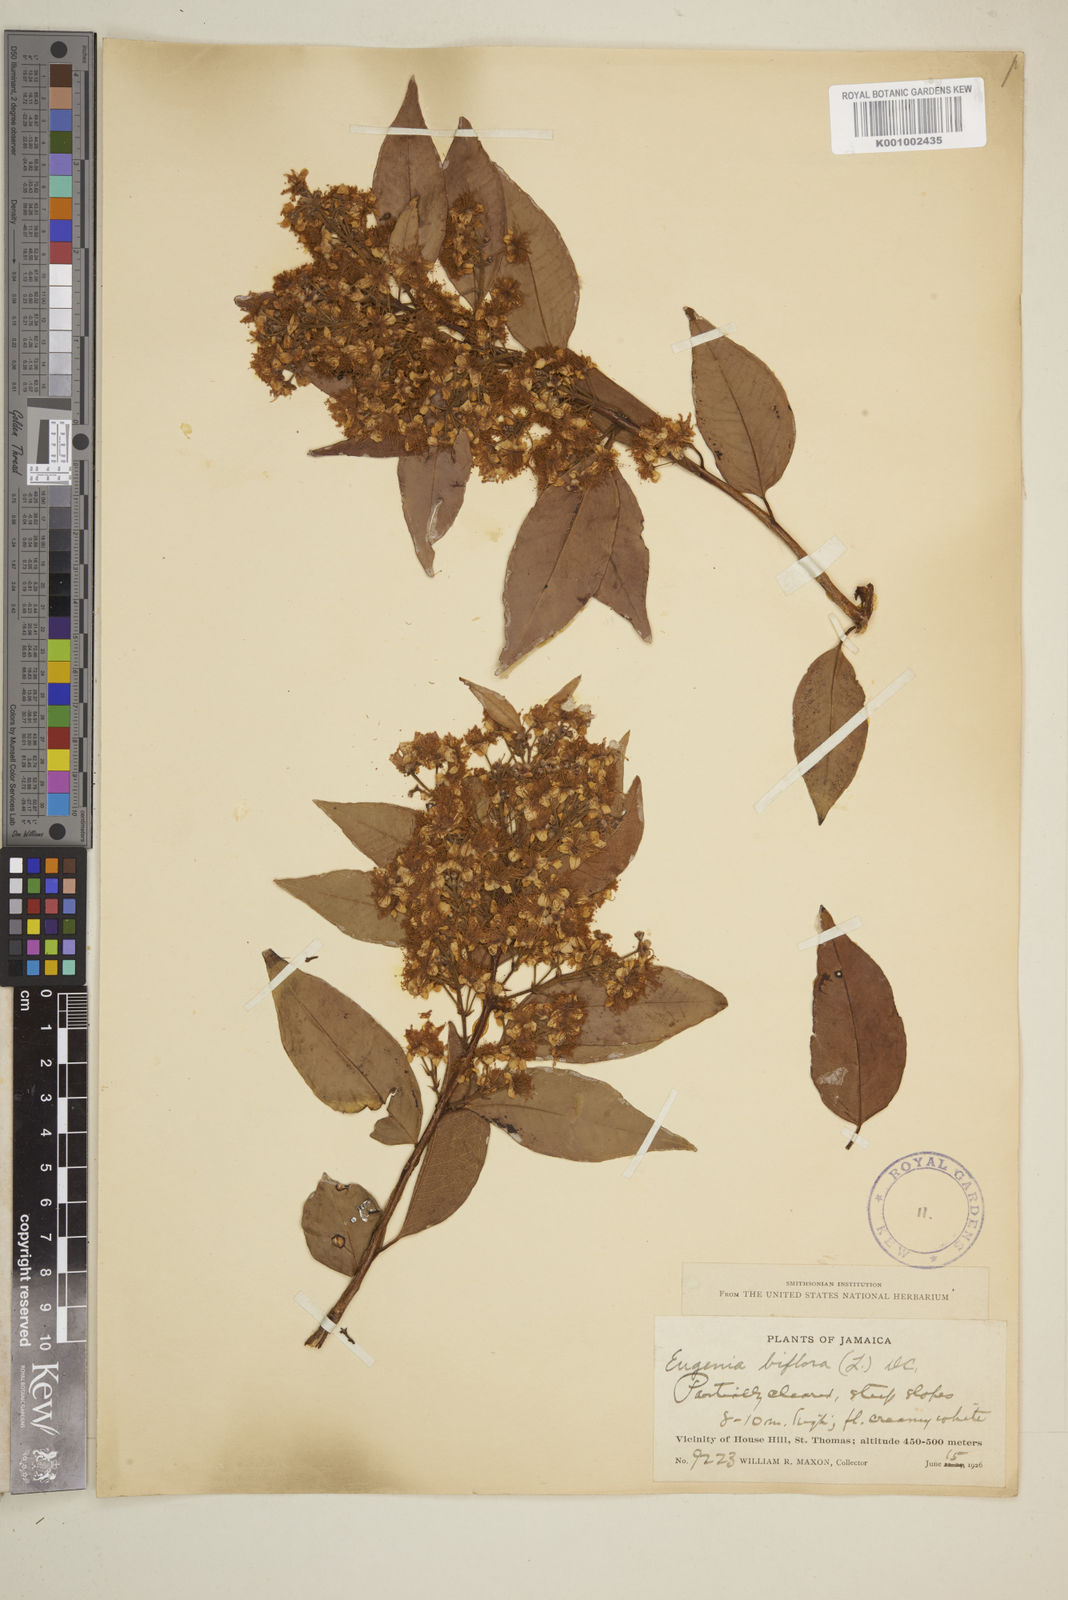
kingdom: Plantae
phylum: Tracheophyta
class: Magnoliopsida
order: Myrtales
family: Myrtaceae
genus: Eugenia
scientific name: Eugenia biflora
